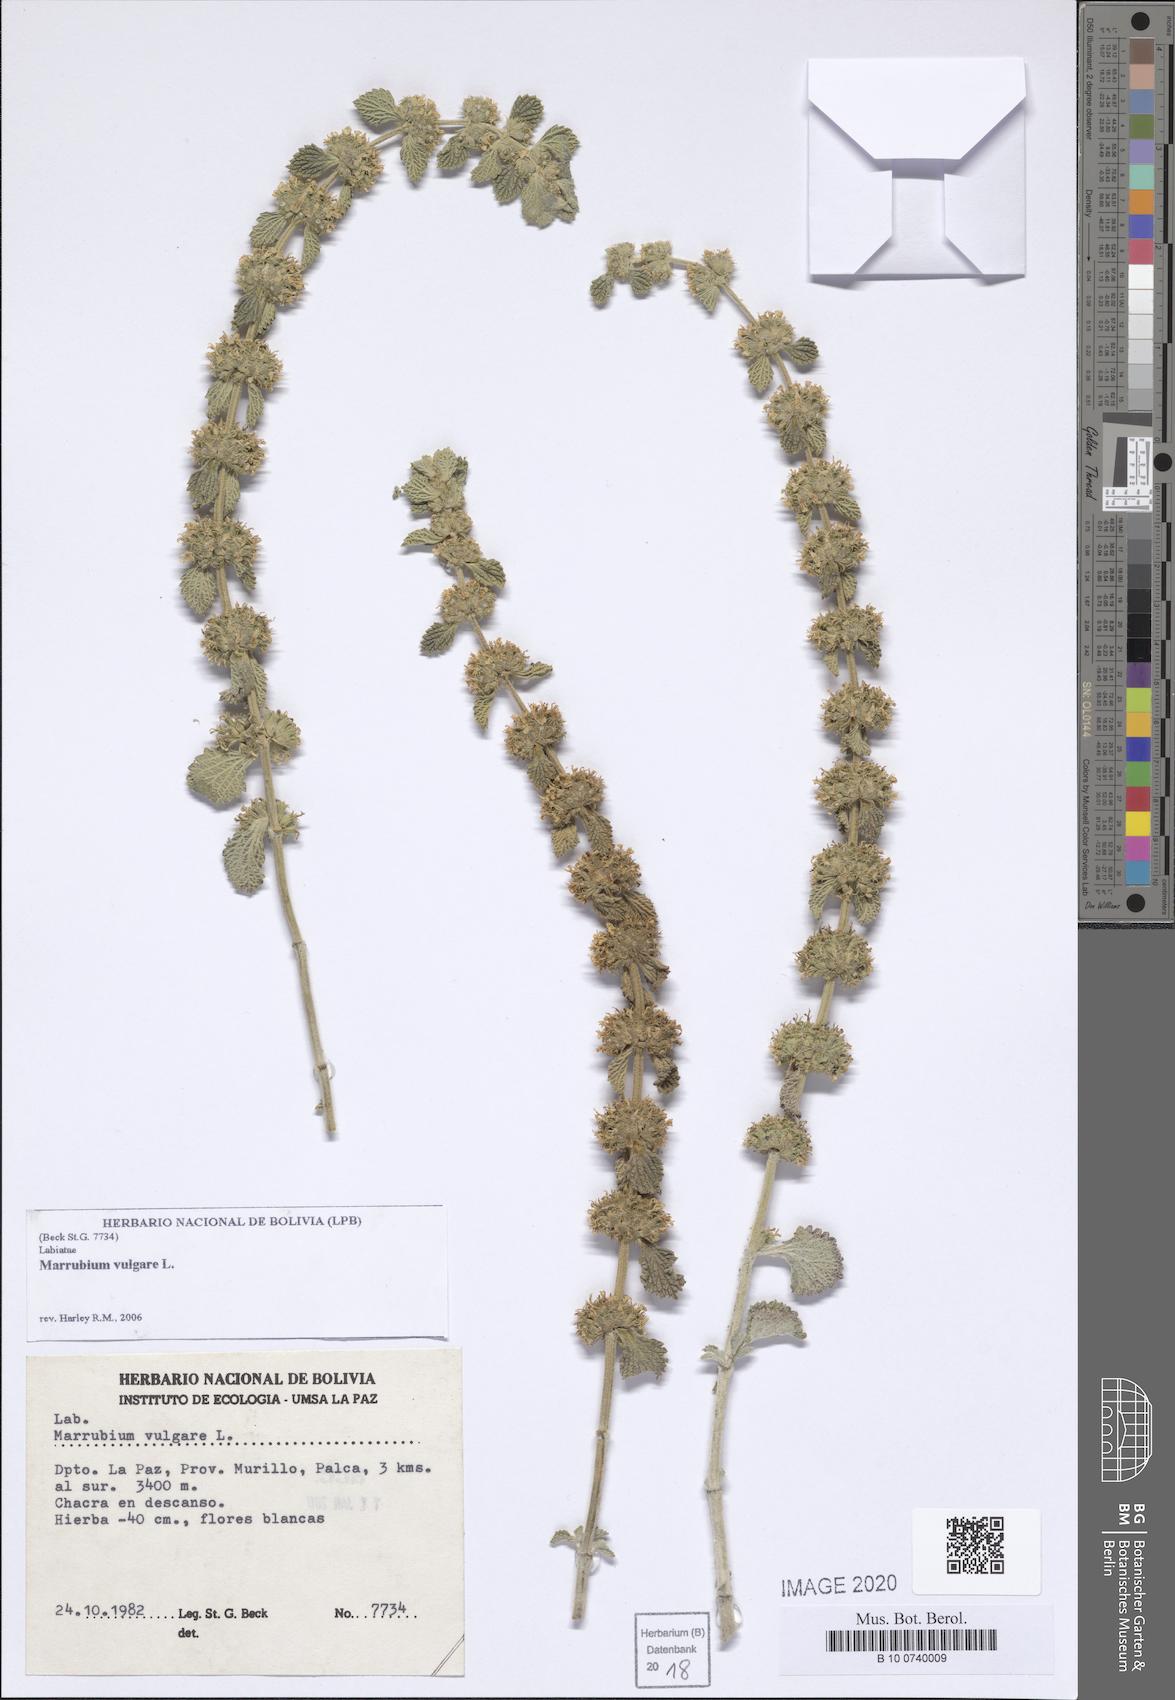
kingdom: Plantae
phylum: Tracheophyta
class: Magnoliopsida
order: Lamiales
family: Lamiaceae
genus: Marrubium
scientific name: Marrubium vulgare
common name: Horehound
